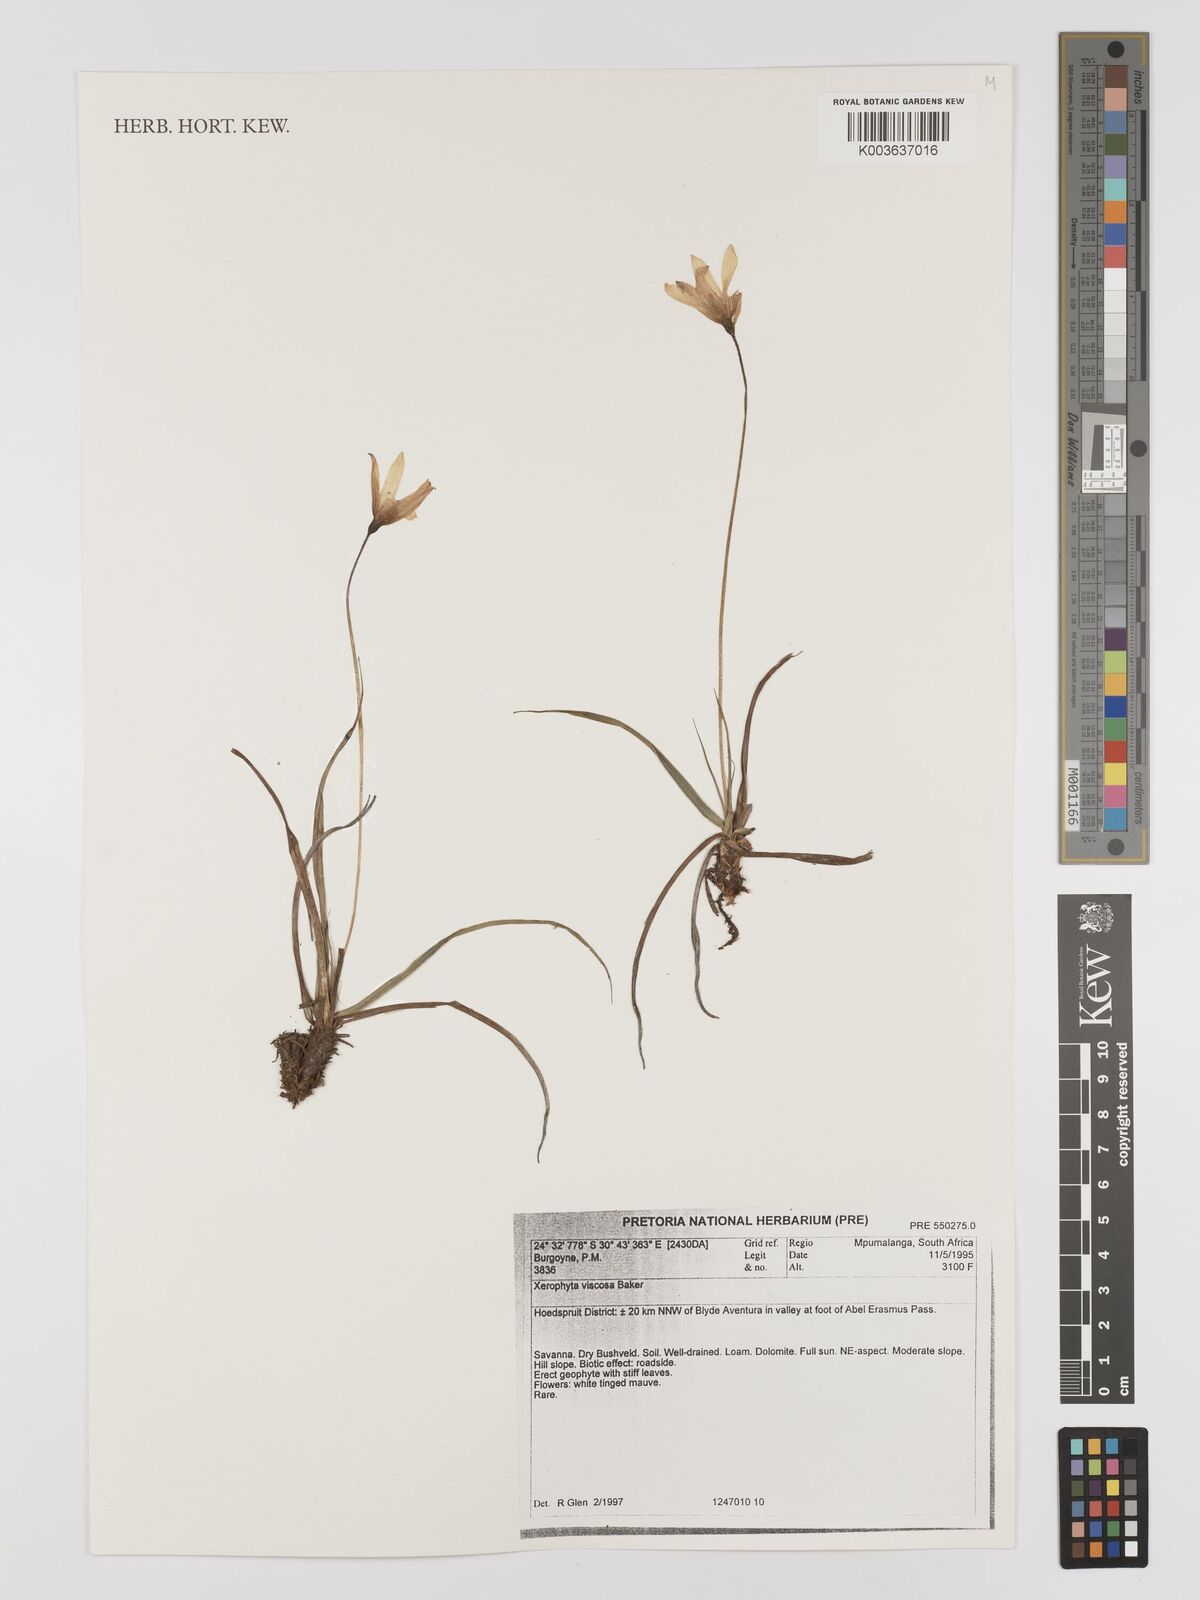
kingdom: Plantae
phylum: Tracheophyta
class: Liliopsida
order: Pandanales
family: Velloziaceae
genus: Xerophyta
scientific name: Xerophyta viscosa
